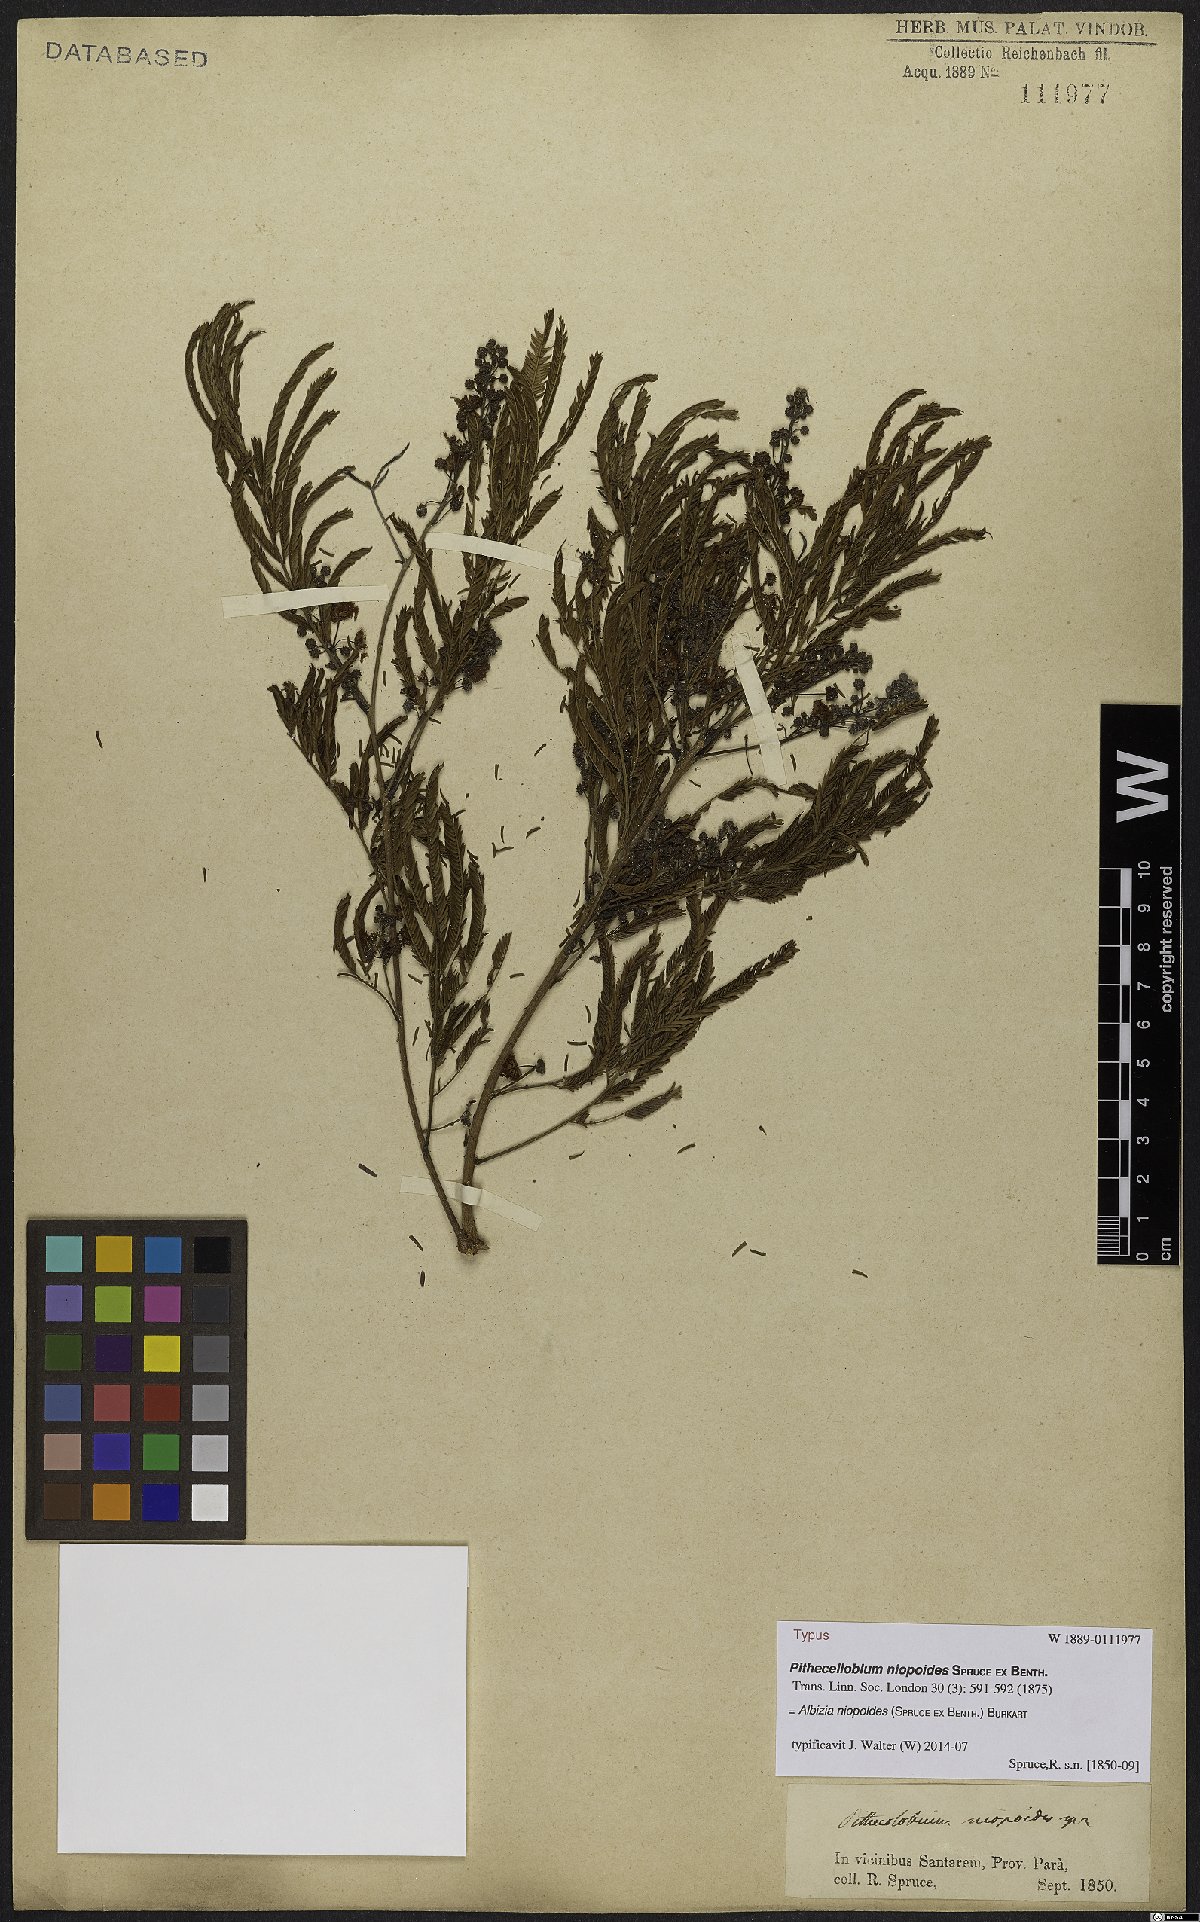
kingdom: Plantae
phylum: Tracheophyta
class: Magnoliopsida
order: Fabales
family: Fabaceae
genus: Albizia
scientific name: Albizia niopoides
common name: Silk tree
